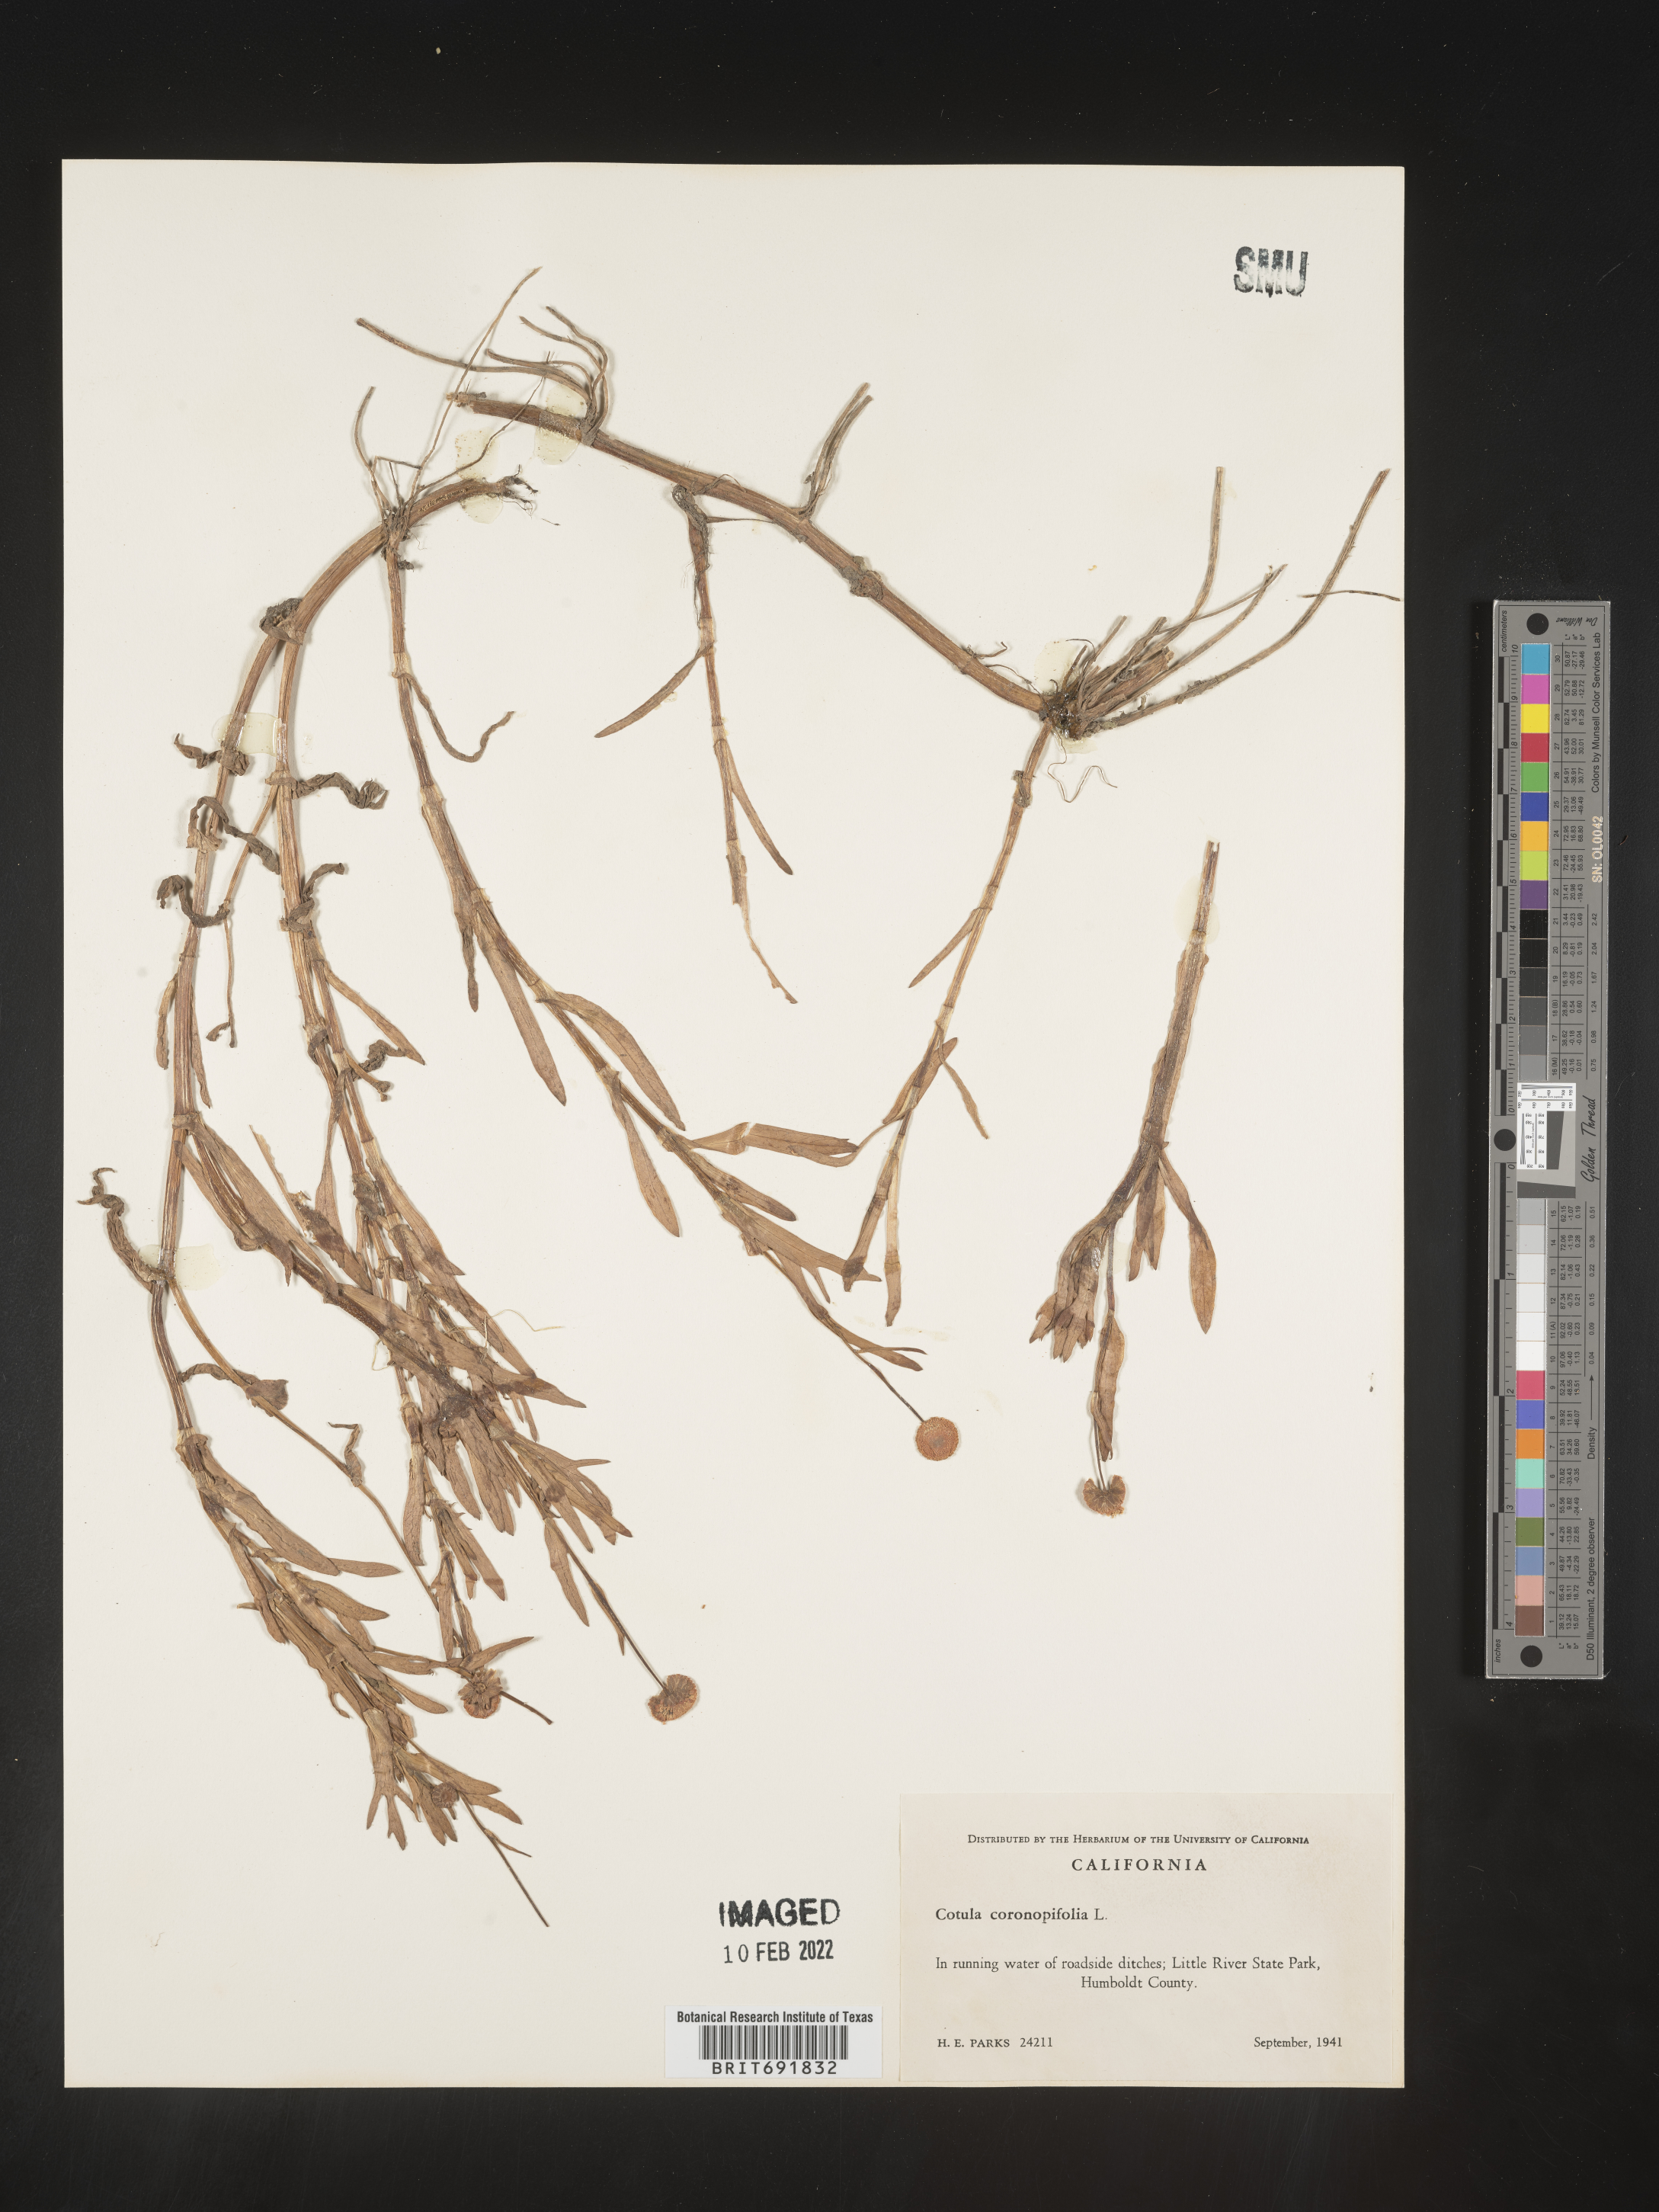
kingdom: Plantae
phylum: Tracheophyta
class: Magnoliopsida
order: Asterales
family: Asteraceae
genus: Cotula
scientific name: Cotula
